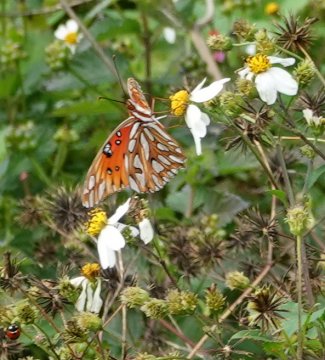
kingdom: Animalia
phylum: Arthropoda
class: Insecta
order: Lepidoptera
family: Nymphalidae
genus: Dione
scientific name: Dione vanillae
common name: Gulf Fritillary
